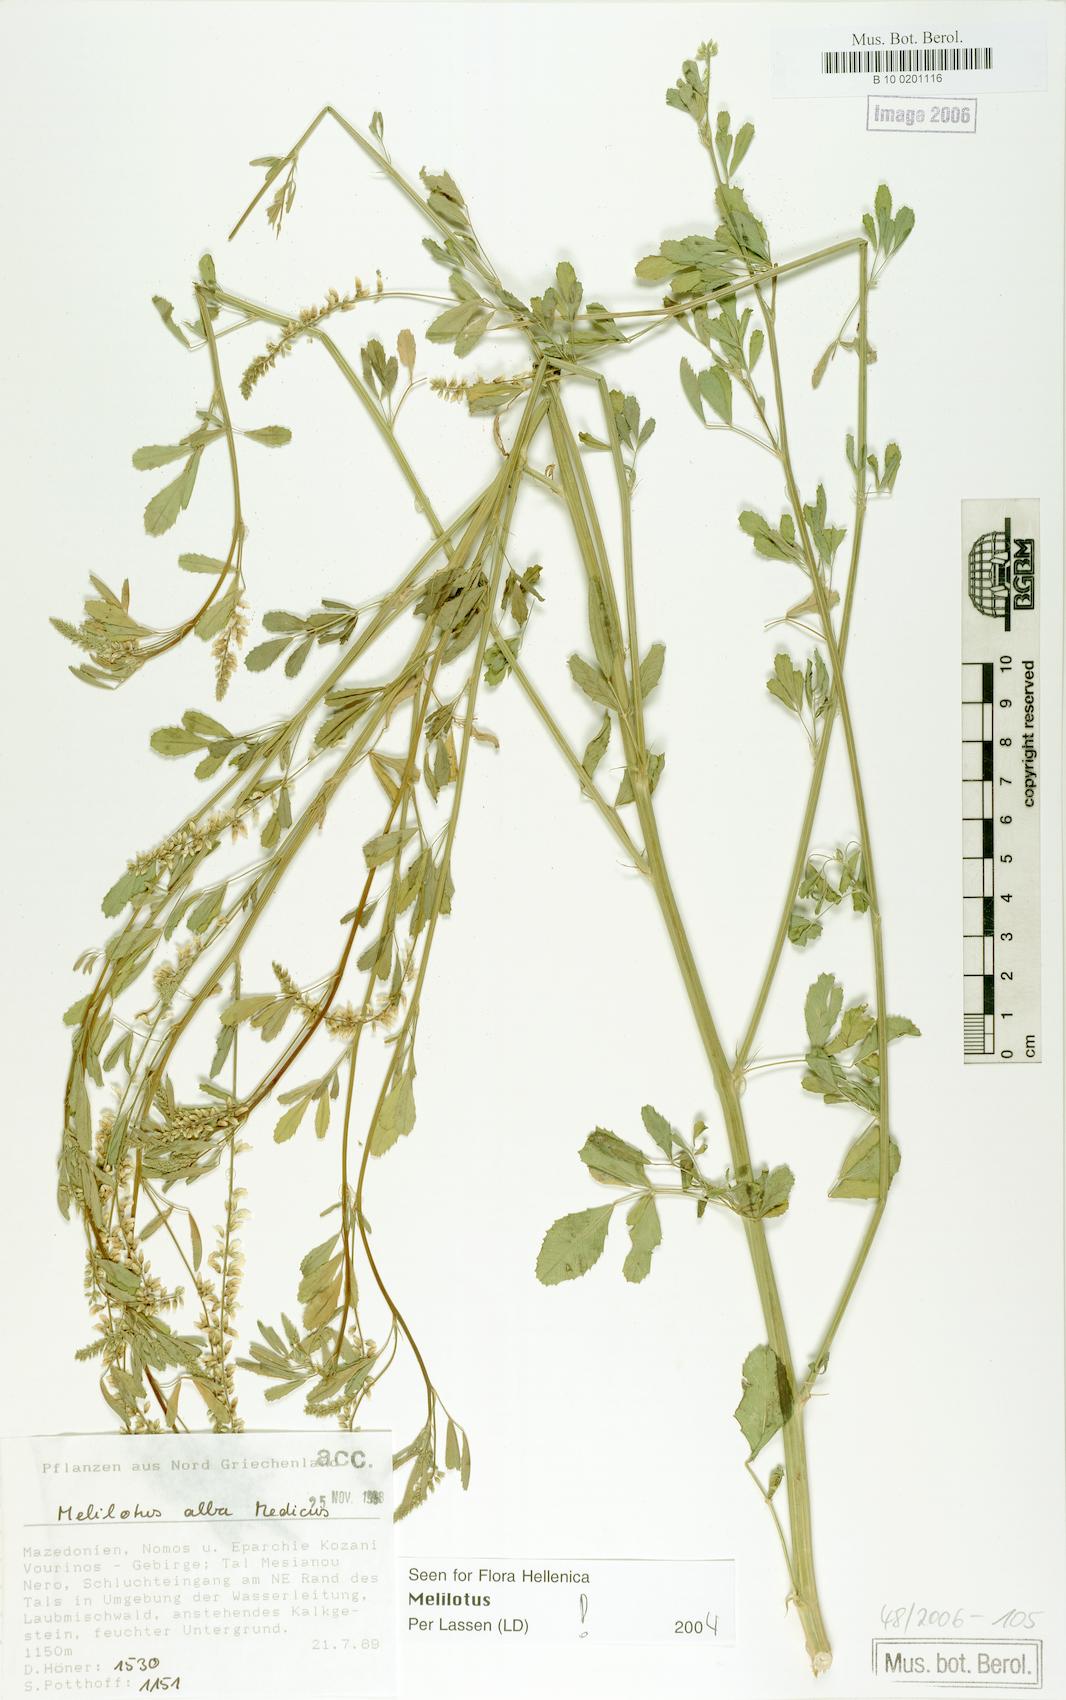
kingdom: Plantae
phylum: Tracheophyta
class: Magnoliopsida
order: Fabales
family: Fabaceae
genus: Melilotus
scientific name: Melilotus albus
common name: White melilot
